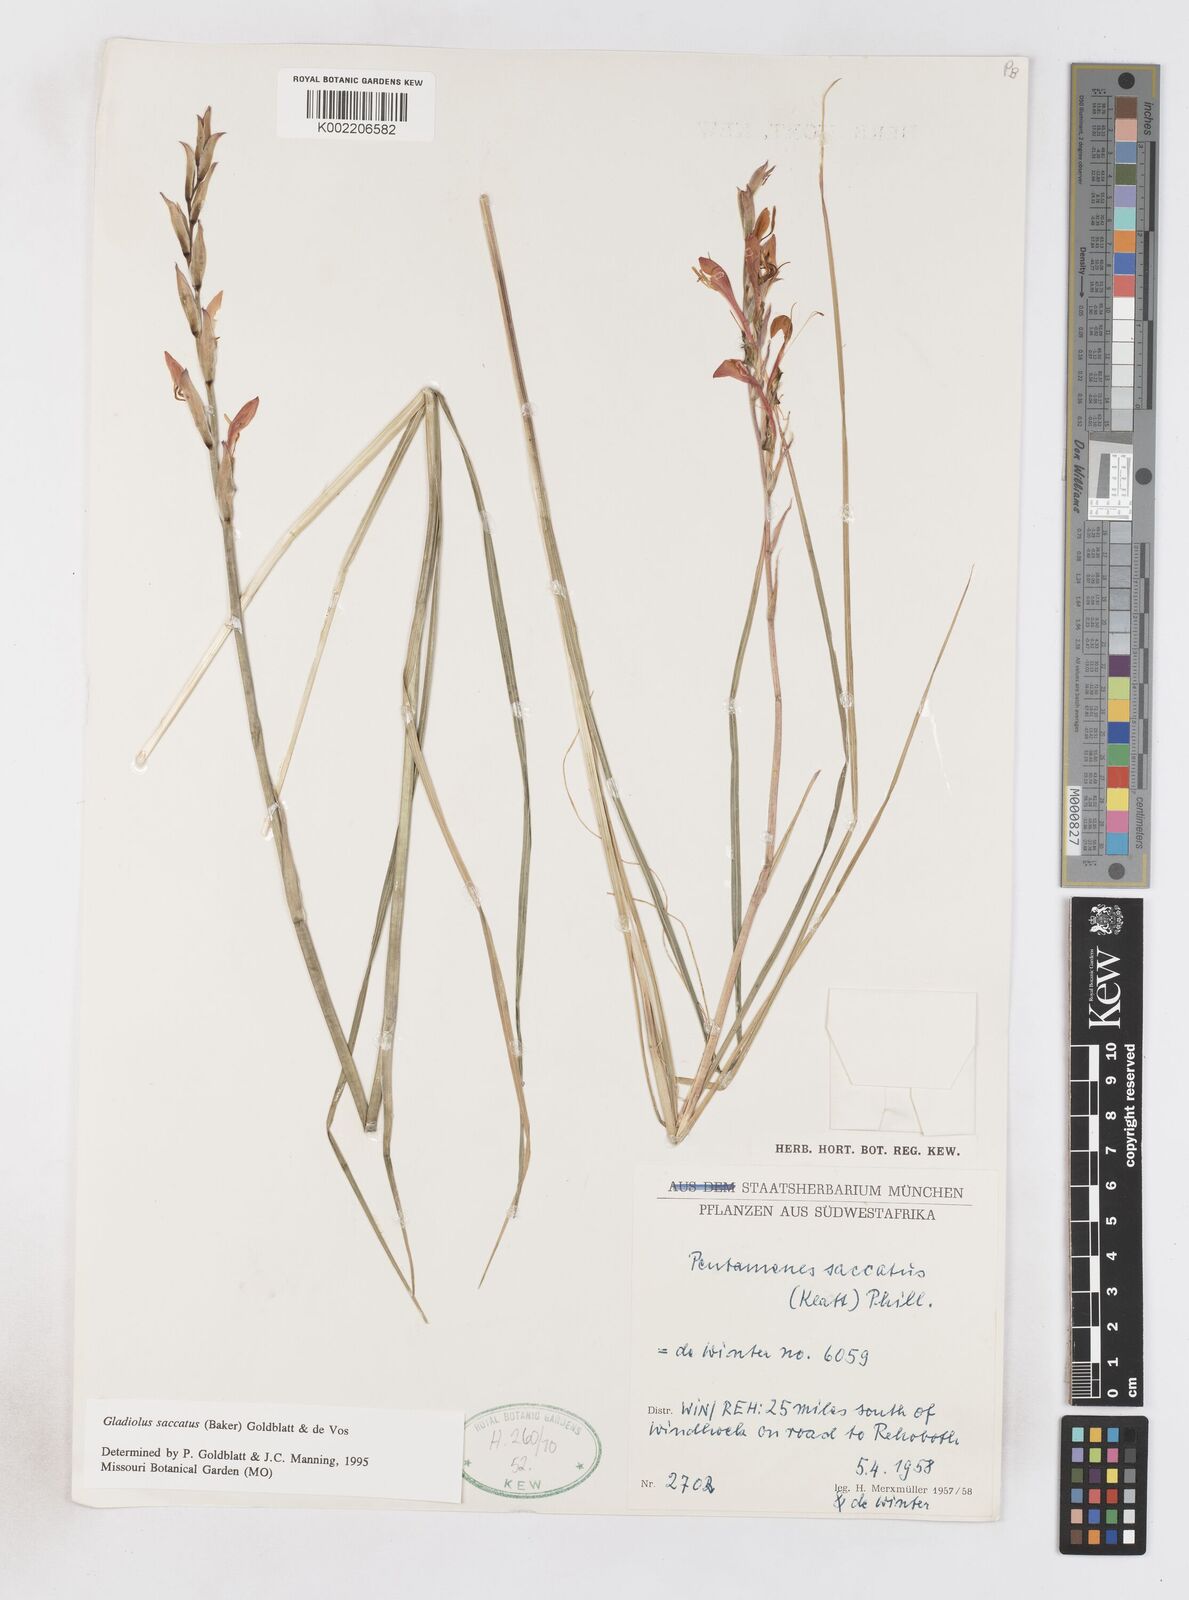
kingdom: Plantae
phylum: Tracheophyta
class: Liliopsida
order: Asparagales
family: Iridaceae
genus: Gladiolus
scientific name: Gladiolus saccatus
